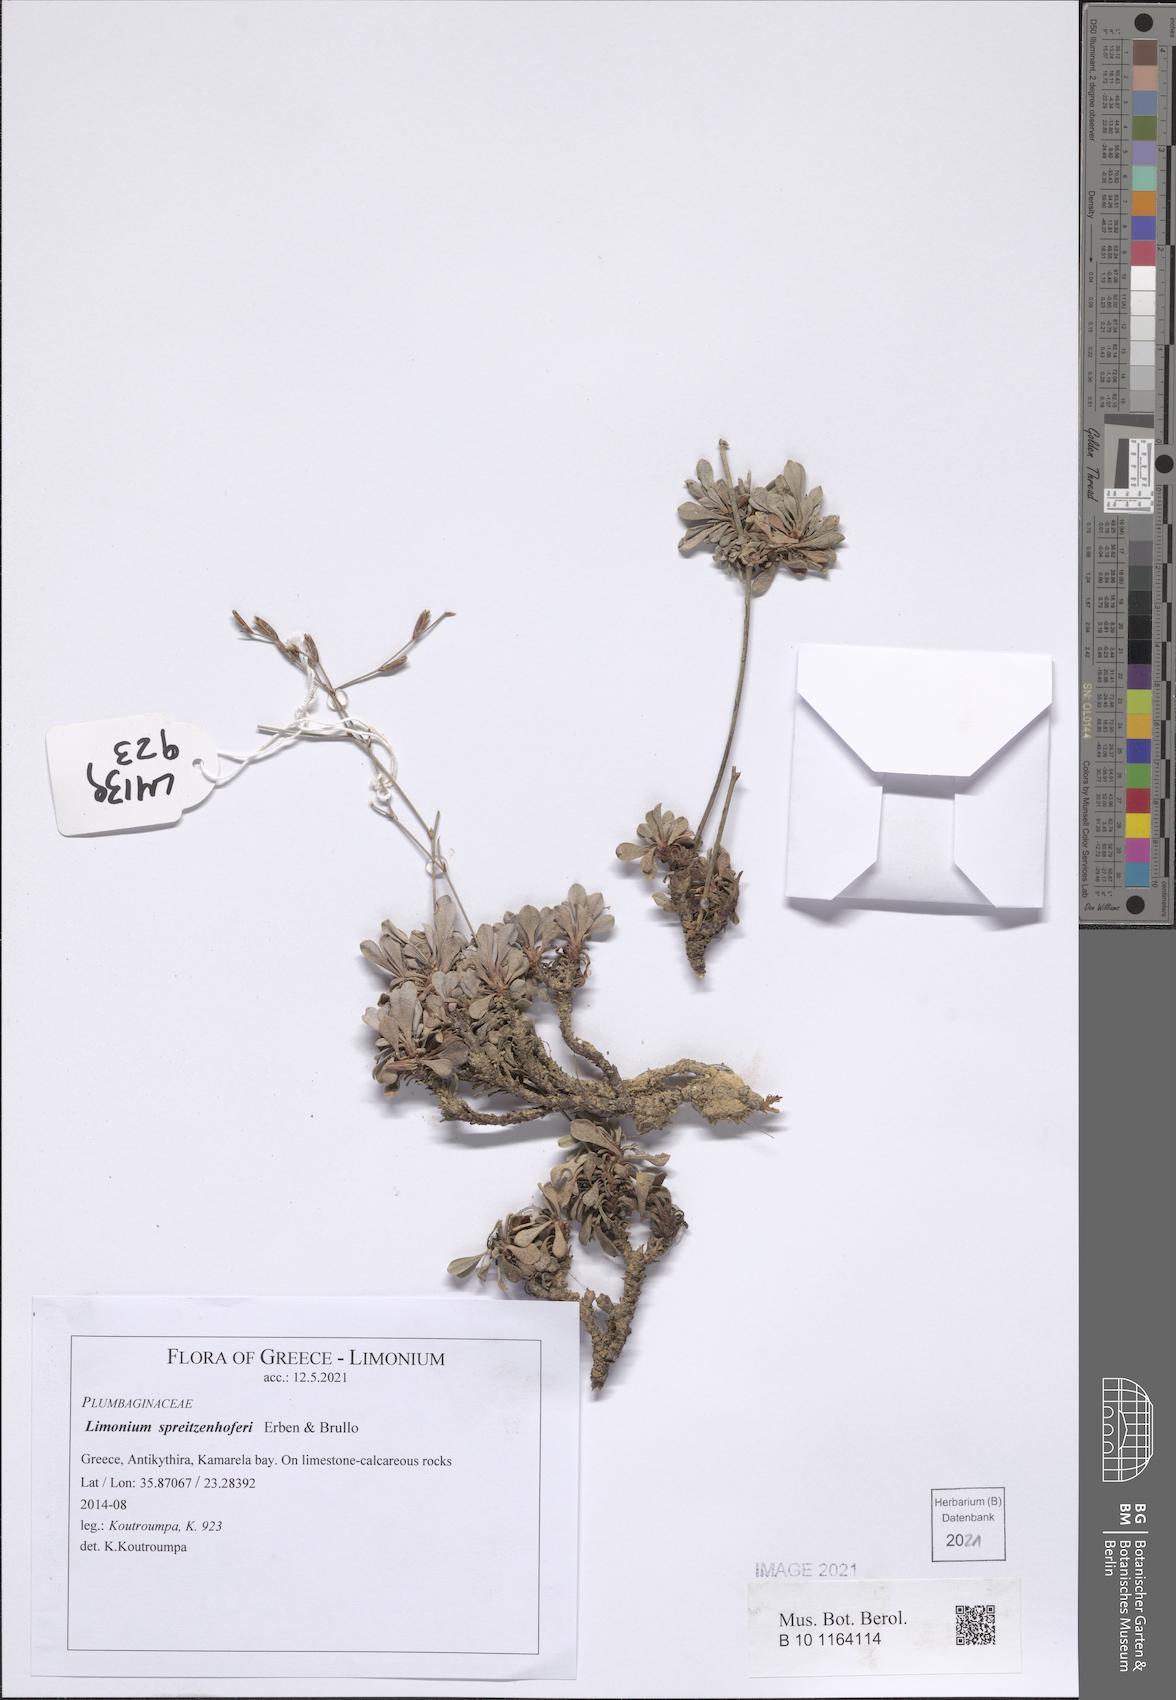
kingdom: Plantae
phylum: Tracheophyta
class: Magnoliopsida
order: Caryophyllales
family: Plumbaginaceae
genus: Limonium
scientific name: Limonium spreitzenhoferi
